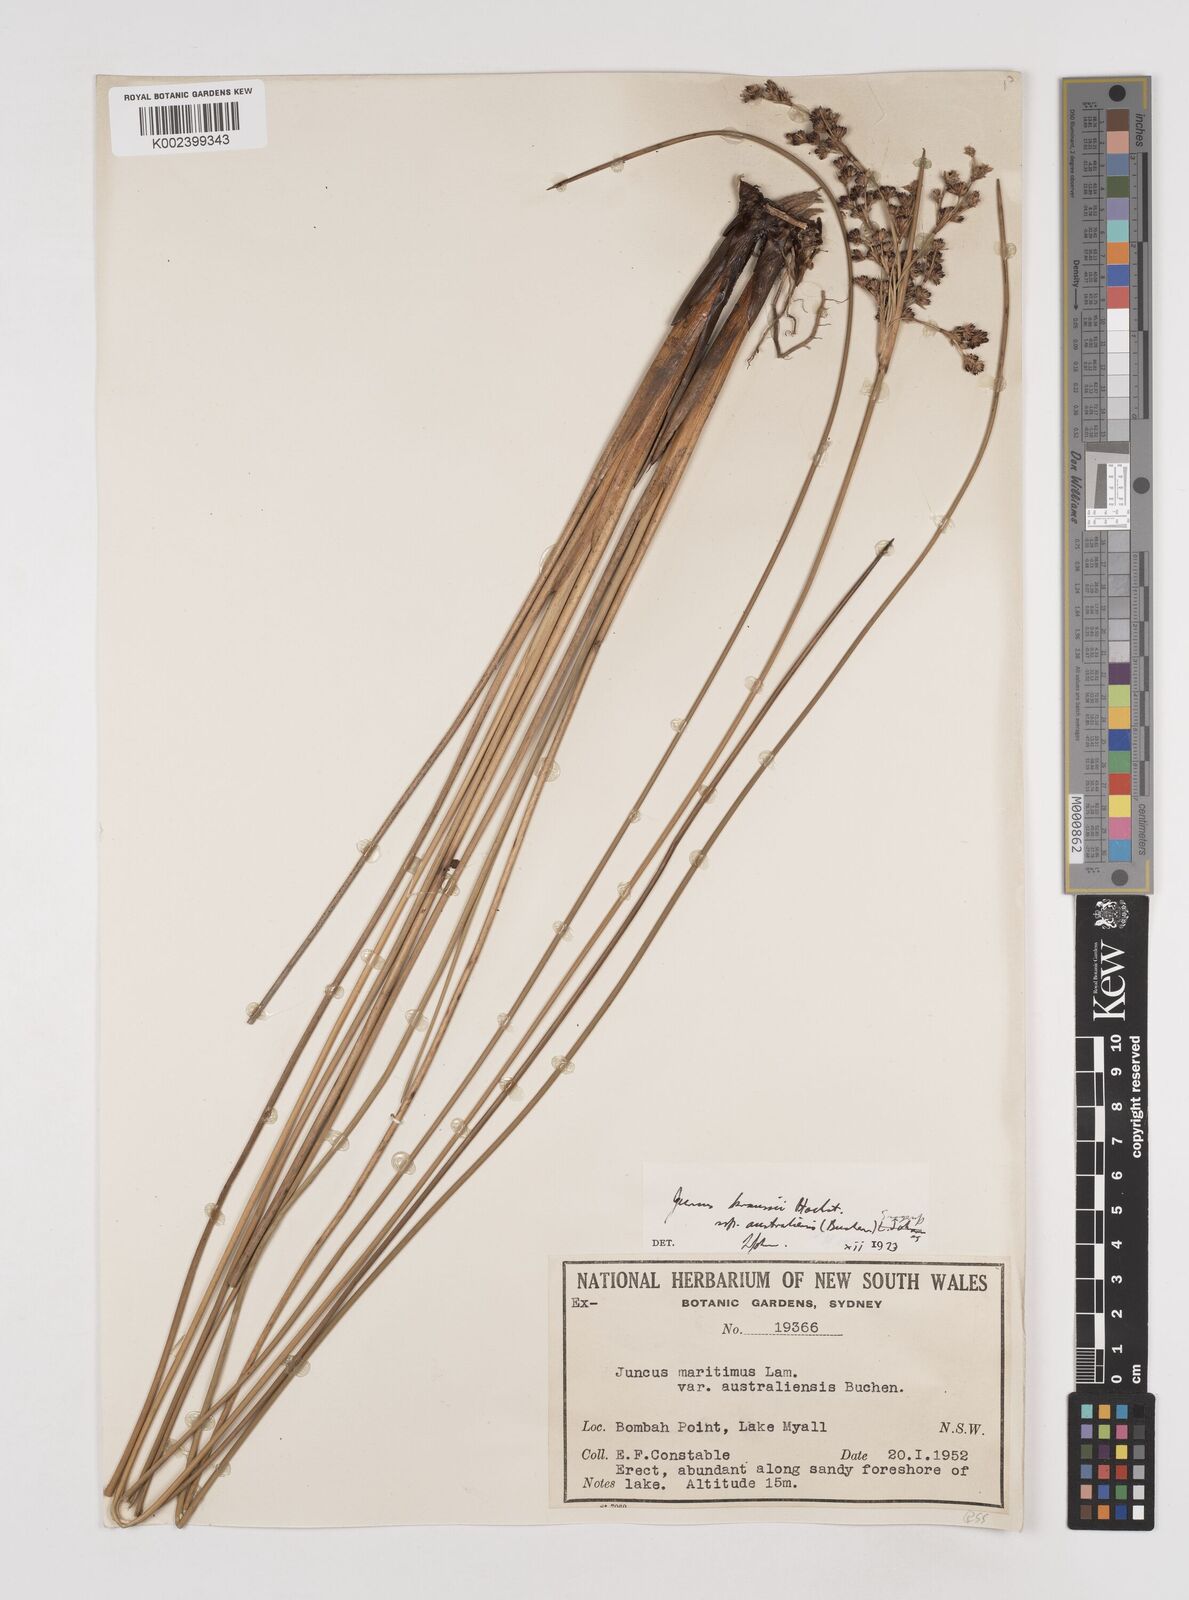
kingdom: Plantae
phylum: Tracheophyta
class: Liliopsida
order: Poales
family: Juncaceae
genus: Juncus
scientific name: Juncus kraussii
